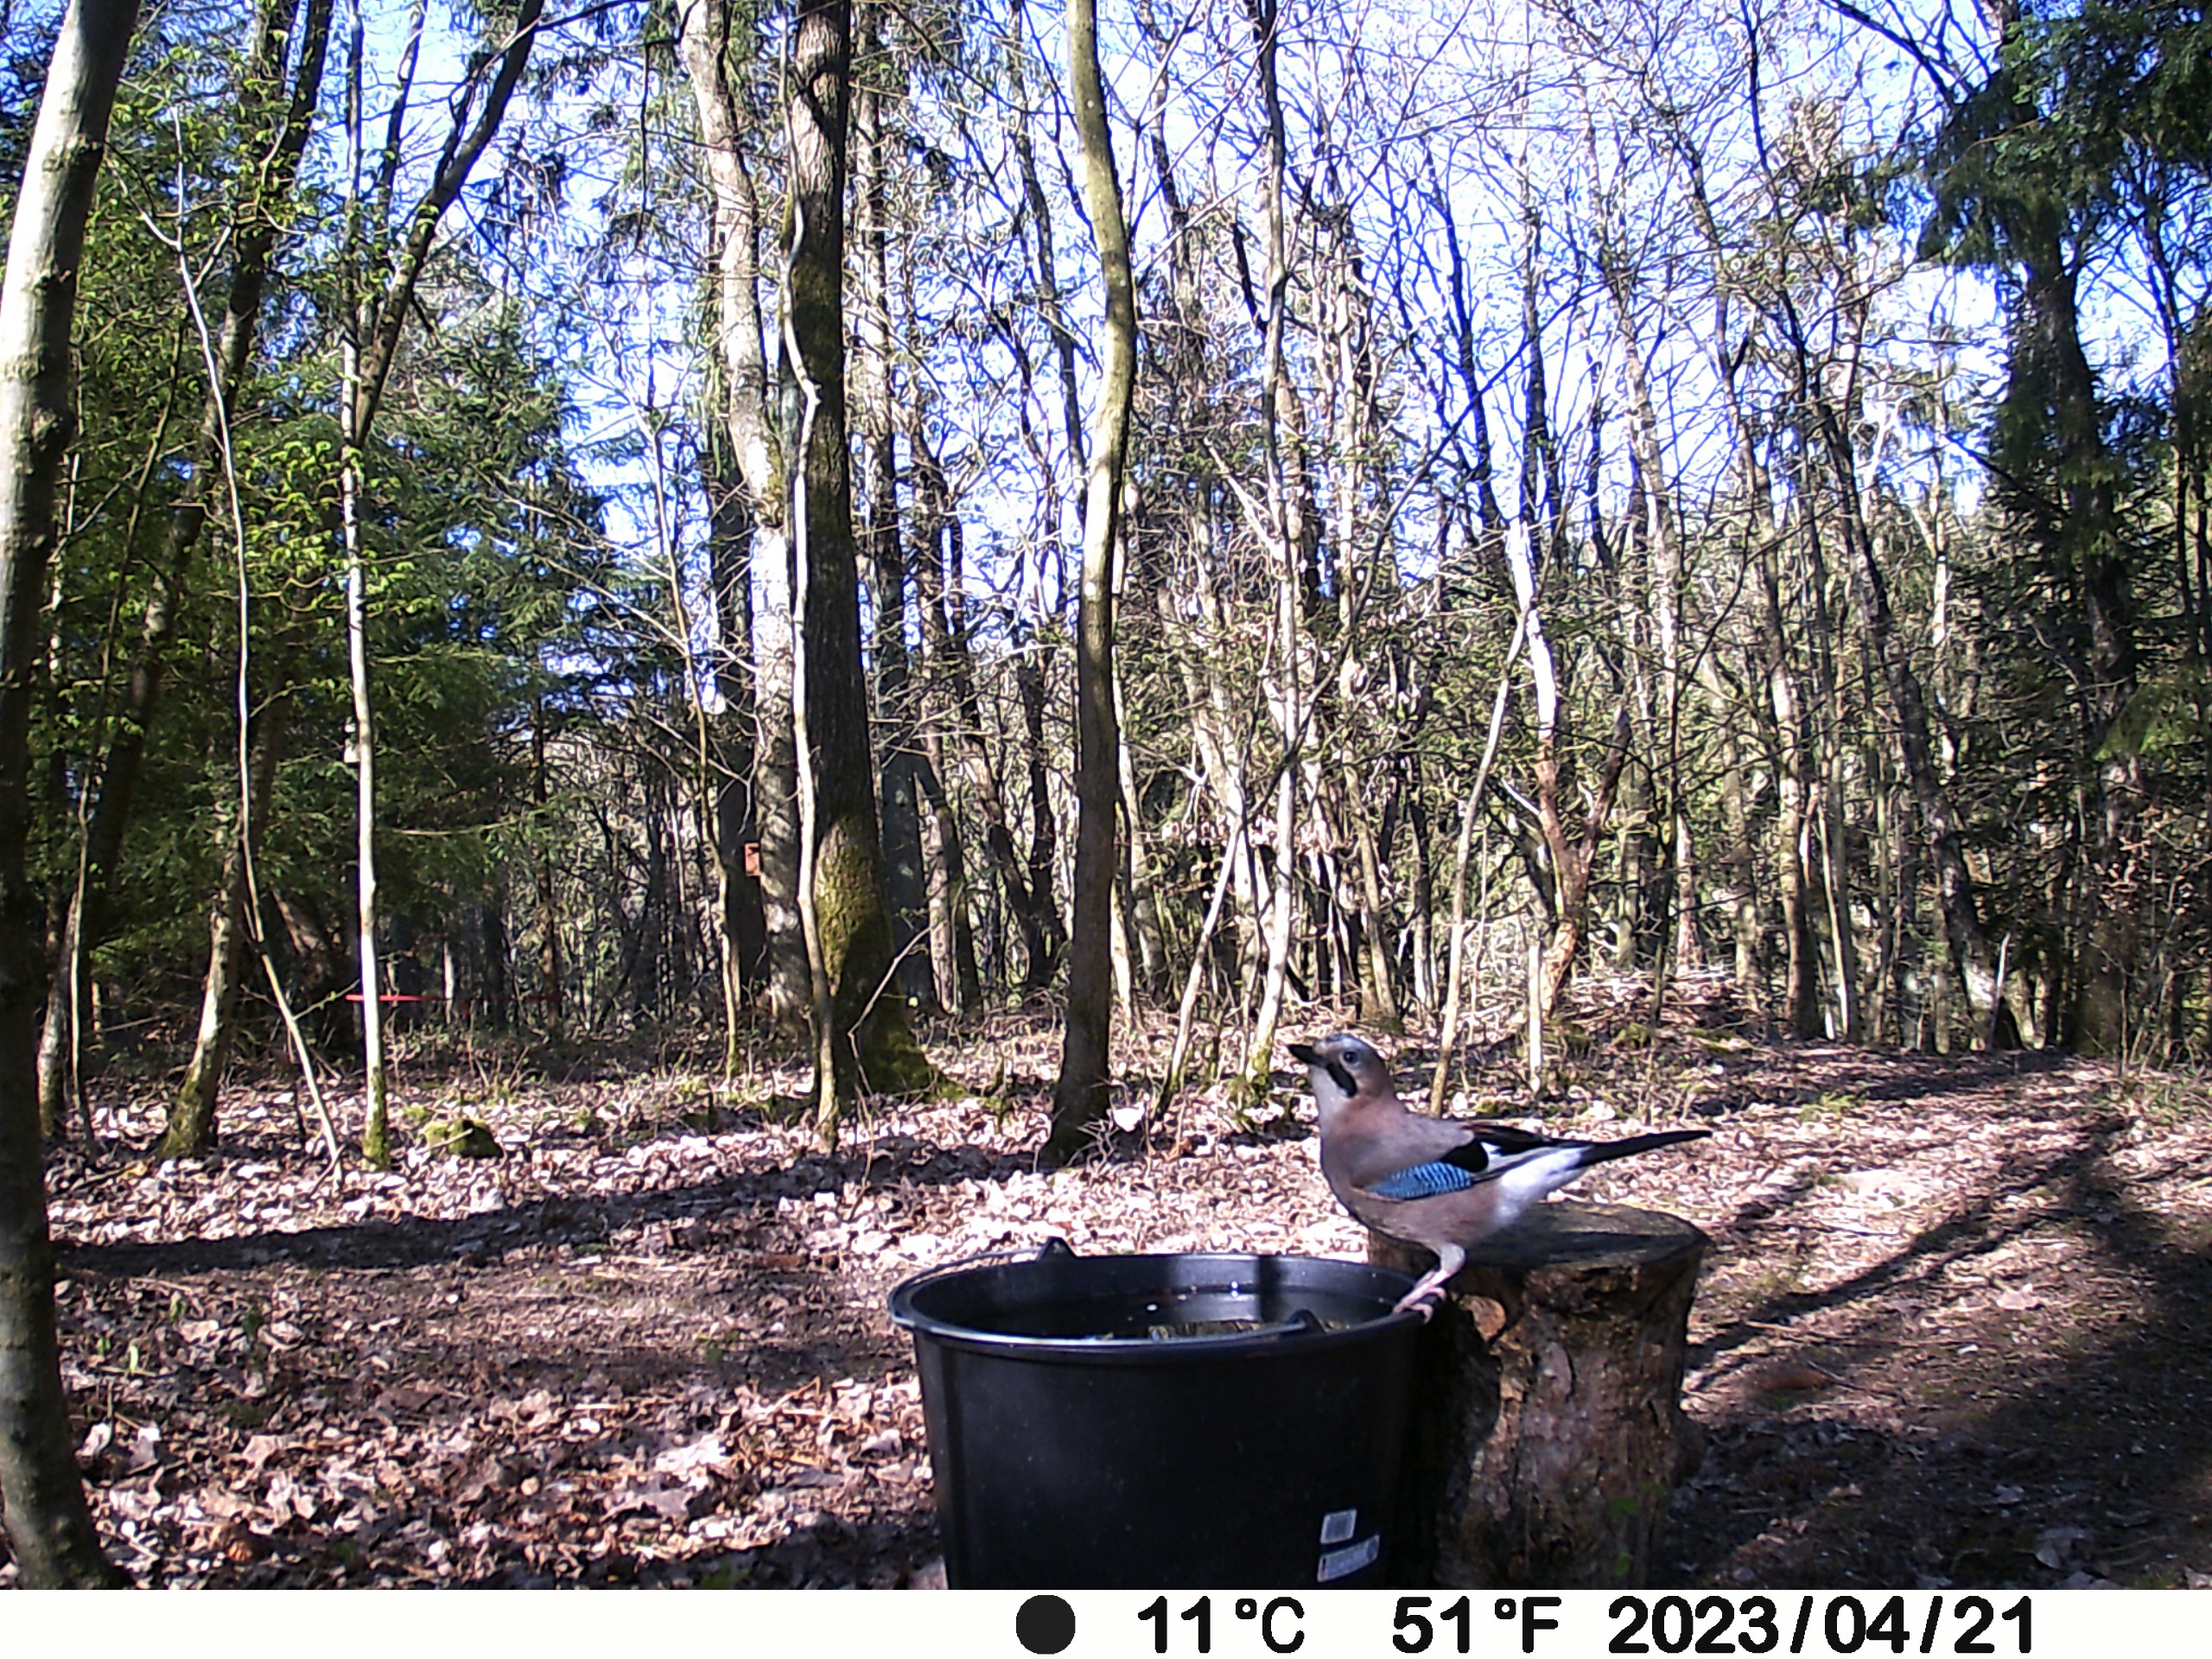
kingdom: Animalia
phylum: Chordata
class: Aves
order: Passeriformes
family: Corvidae
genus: Garrulus
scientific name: Garrulus glandarius
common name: Skovskade
